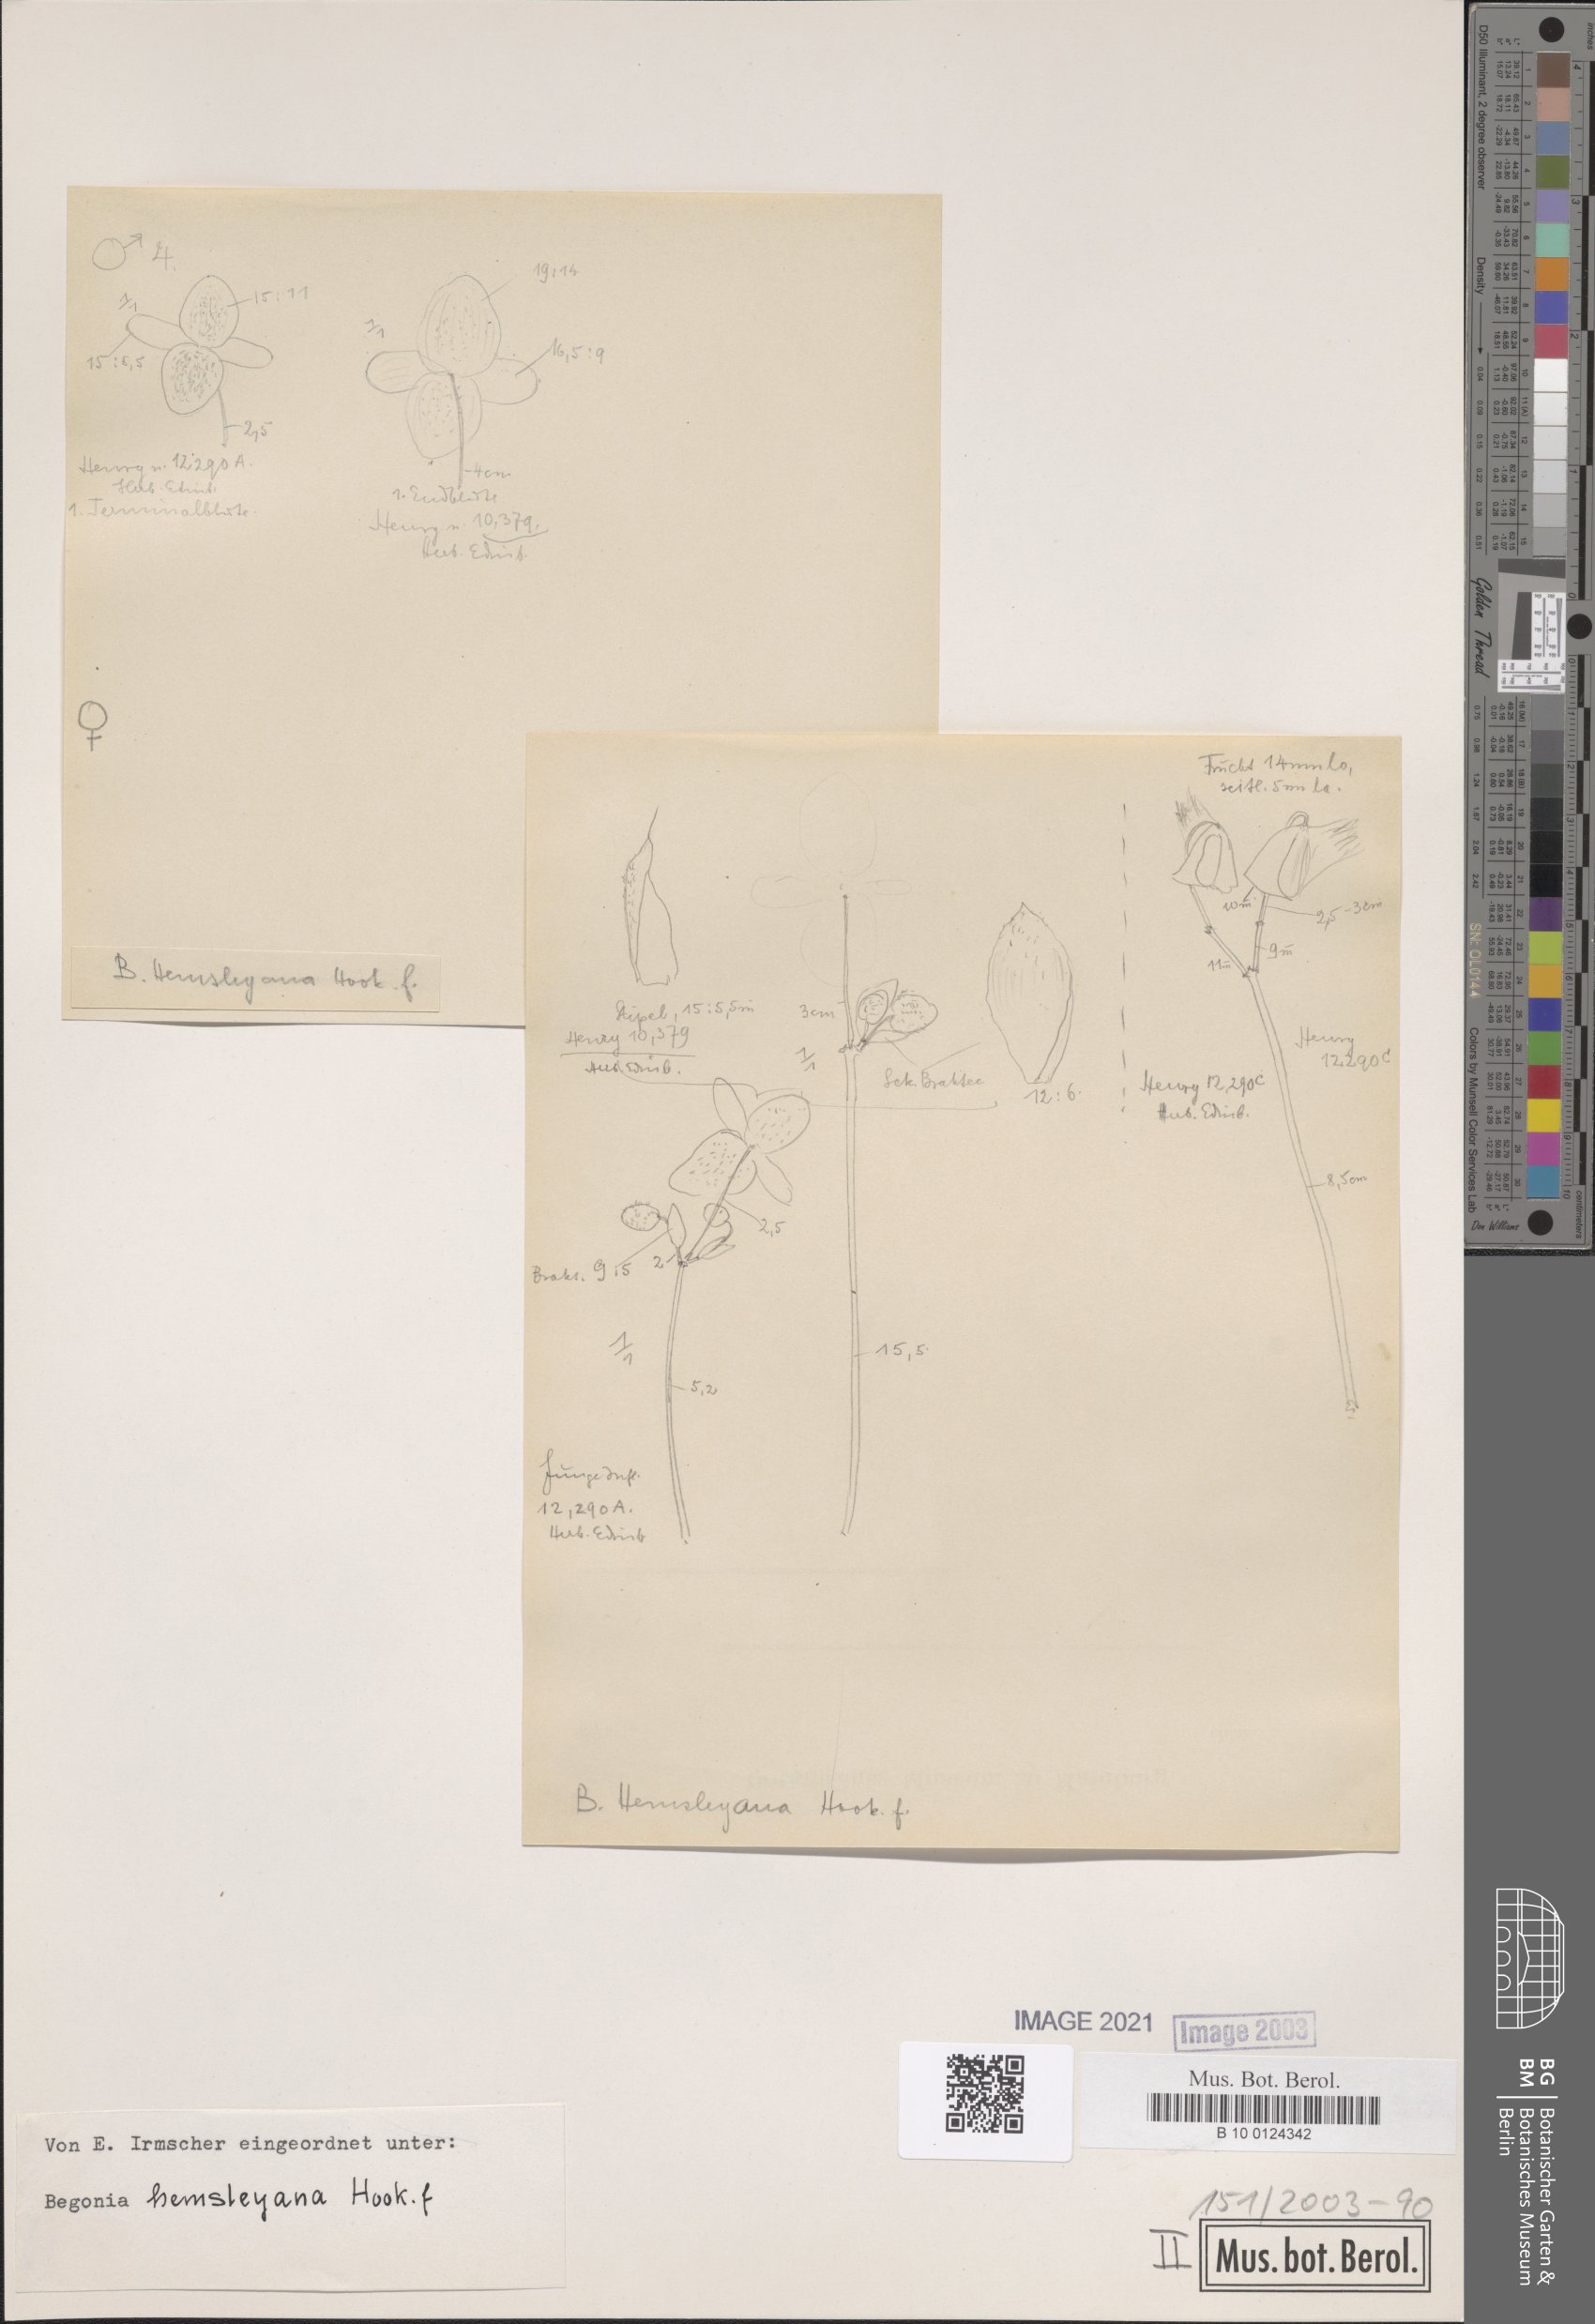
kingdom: Plantae
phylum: Tracheophyta
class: Magnoliopsida
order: Cucurbitales
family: Begoniaceae
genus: Begonia
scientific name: Begonia hemsleyana
